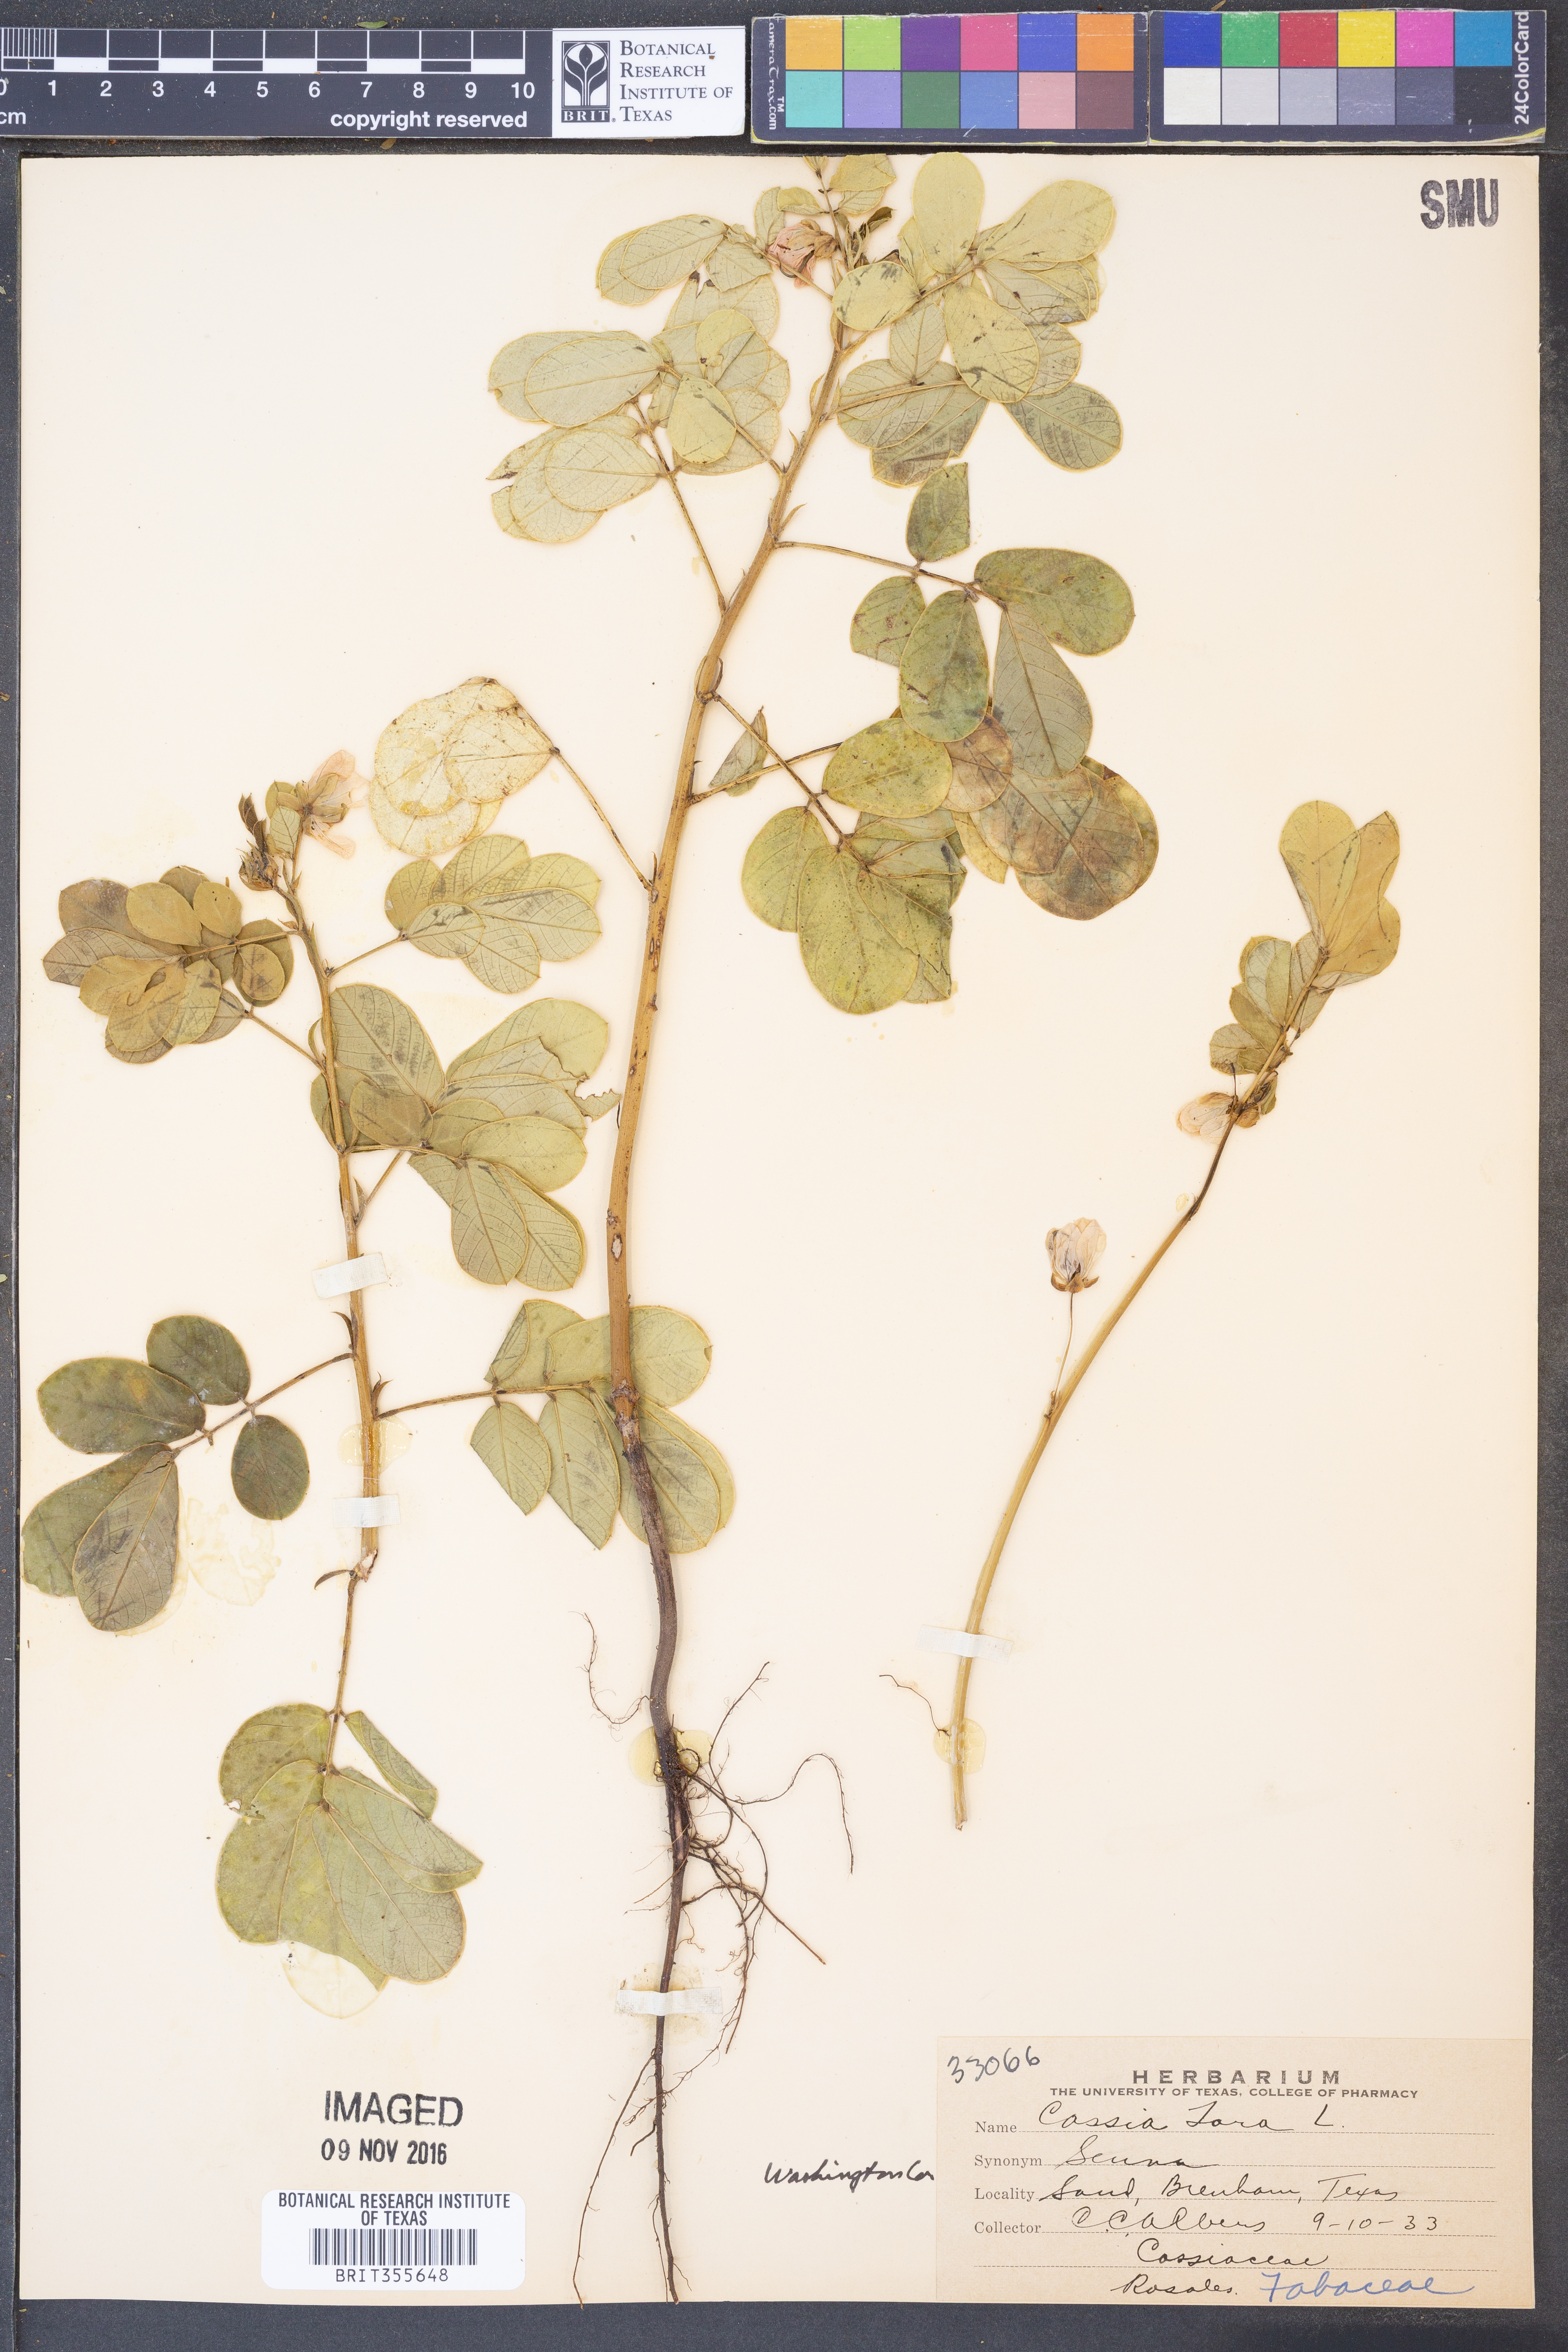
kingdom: Plantae
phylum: Tracheophyta
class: Magnoliopsida
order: Fabales
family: Fabaceae
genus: Senna
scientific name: Senna tora
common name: Sickle senna
